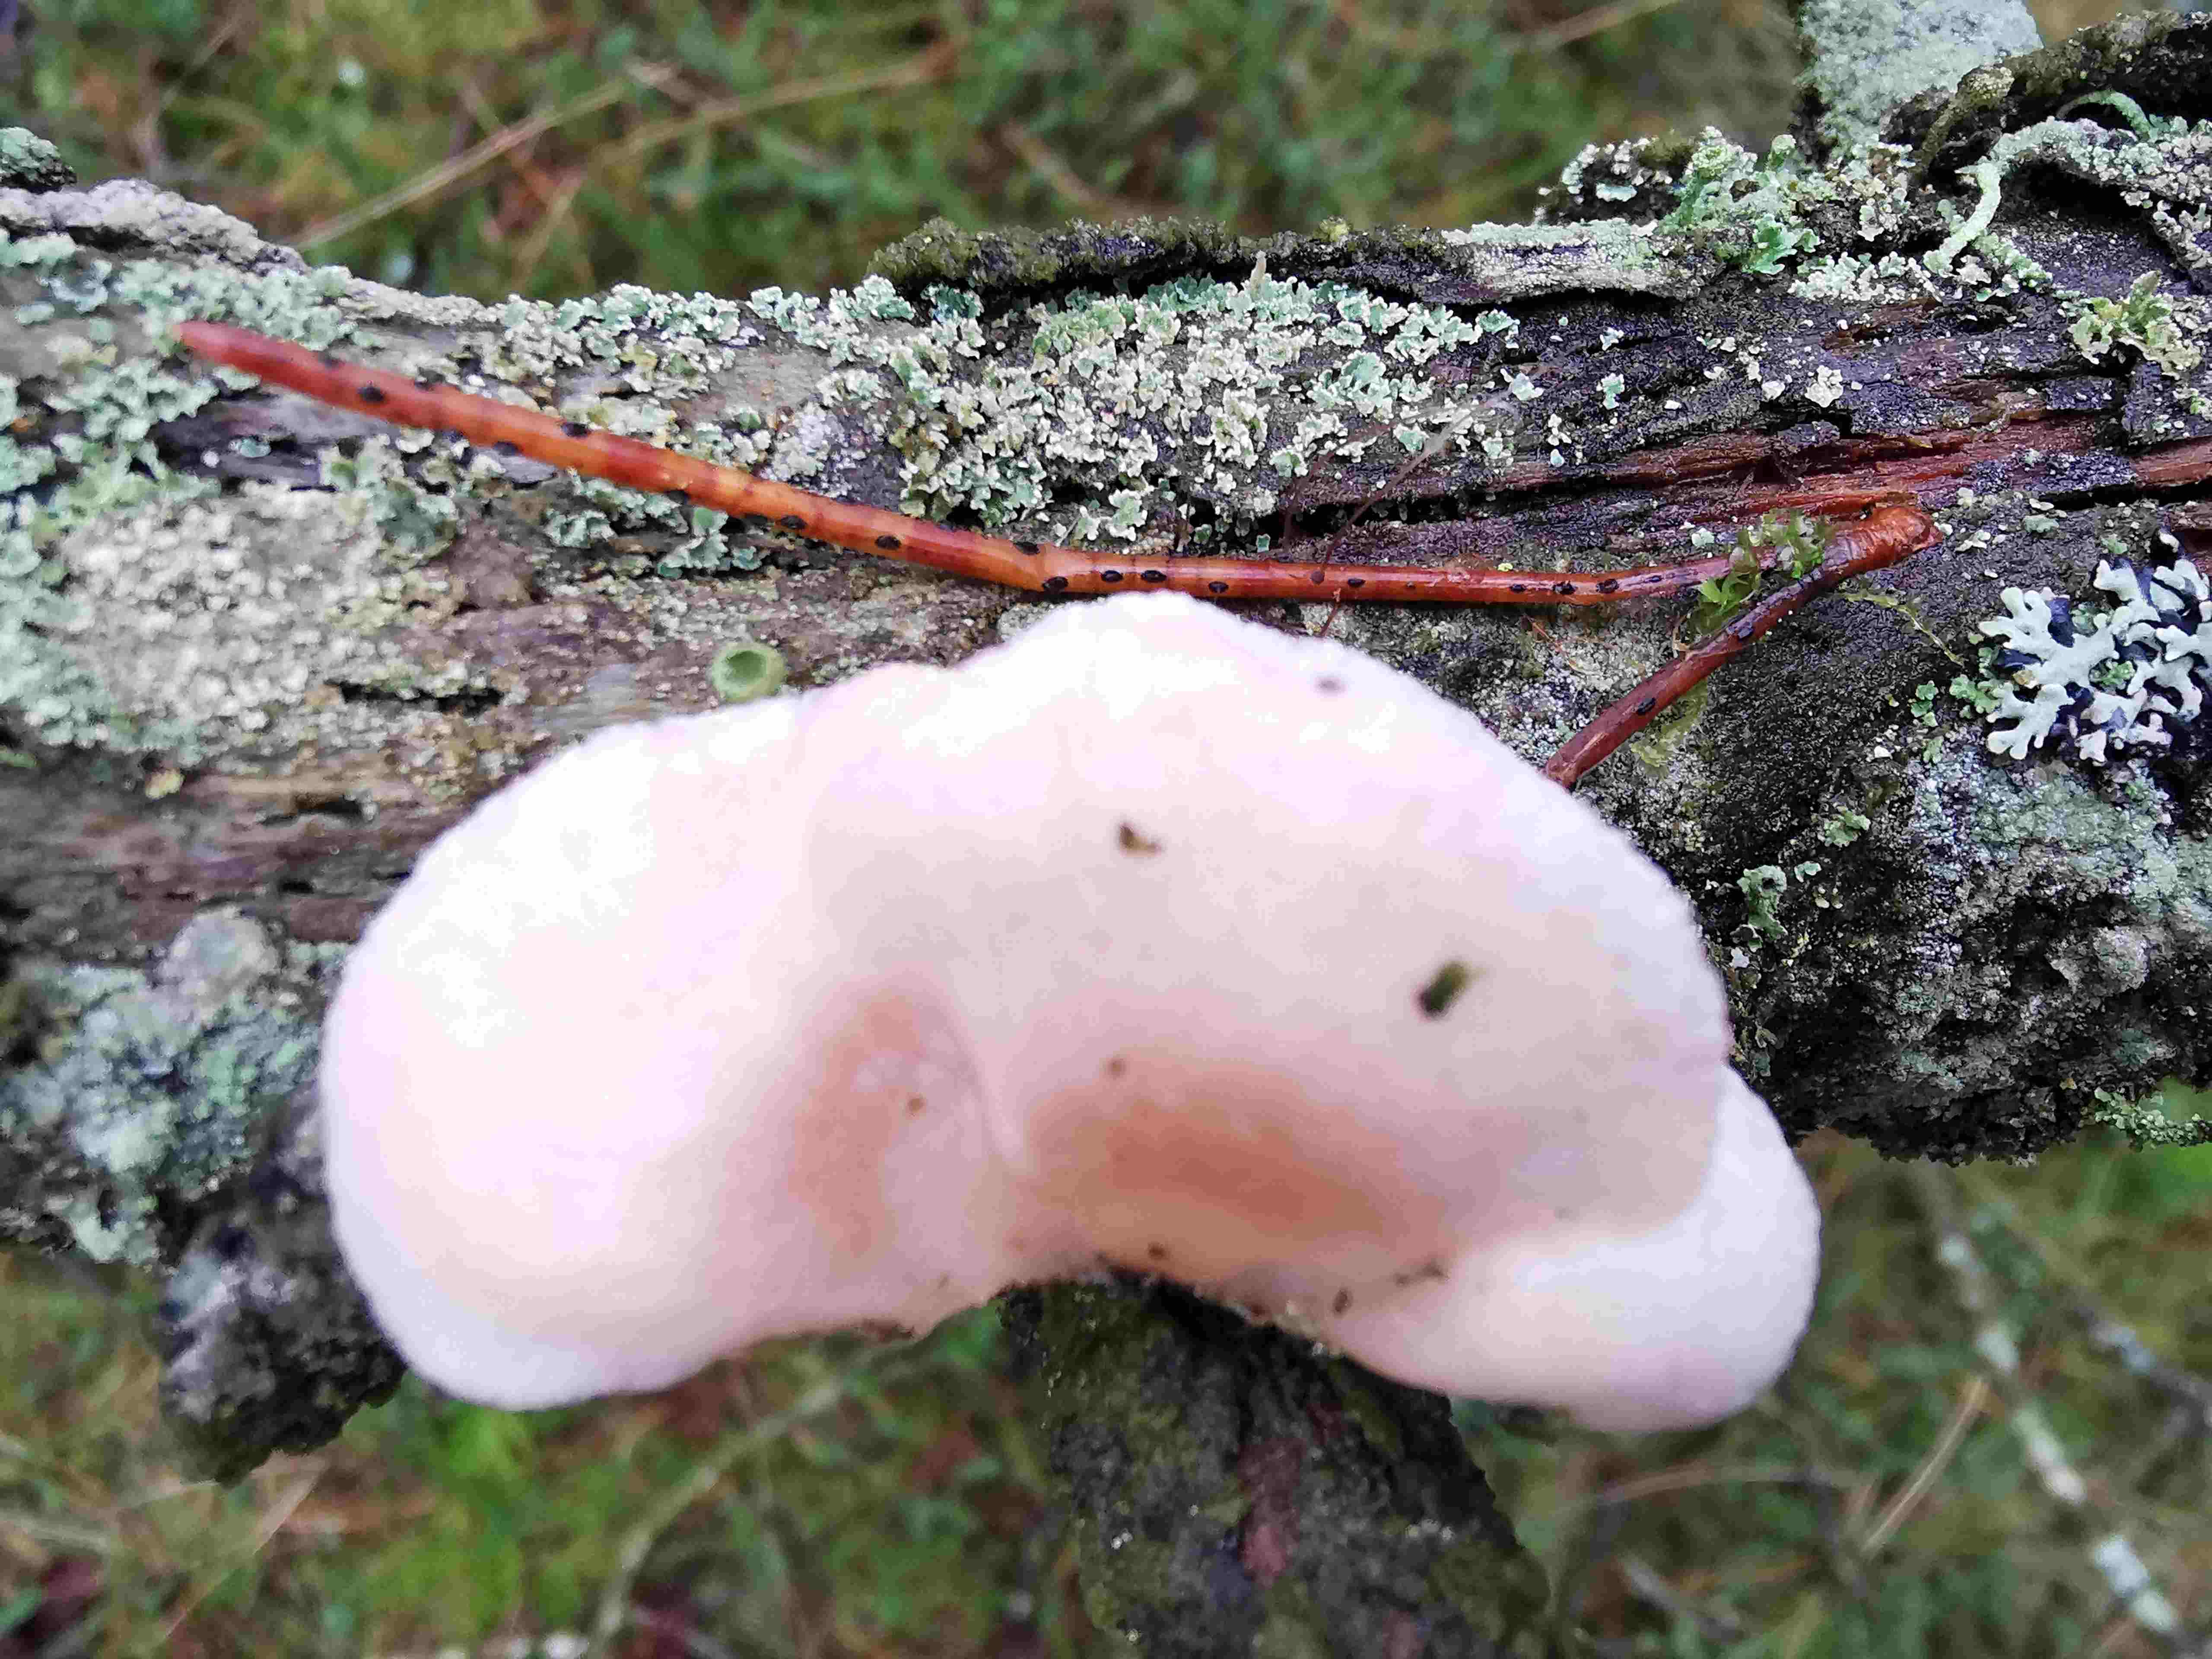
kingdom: Fungi
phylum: Basidiomycota
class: Agaricomycetes
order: Agaricales
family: Mycenaceae
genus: Panellus
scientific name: Panellus mitis
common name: mild epaulethat
